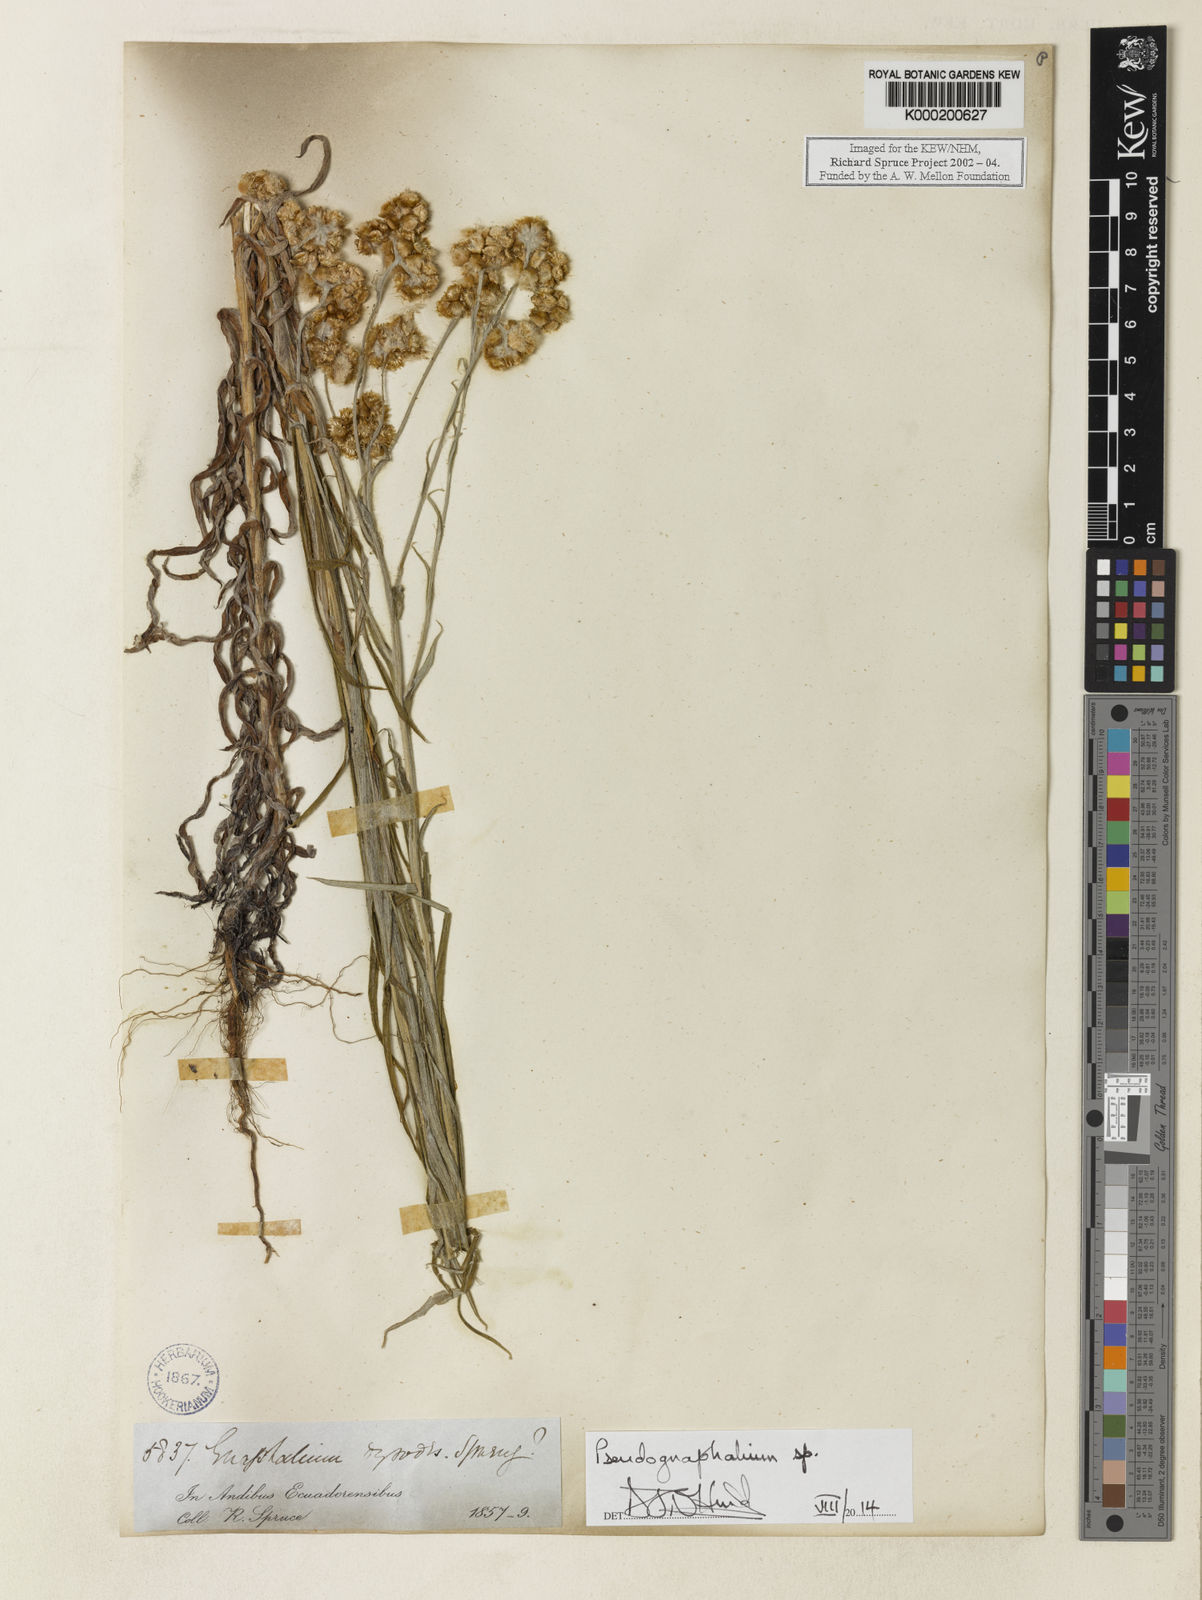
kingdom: Plantae
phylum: Tracheophyta
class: Magnoliopsida
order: Asterales
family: Asteraceae
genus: Pseudognaphalium
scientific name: Pseudognaphalium
